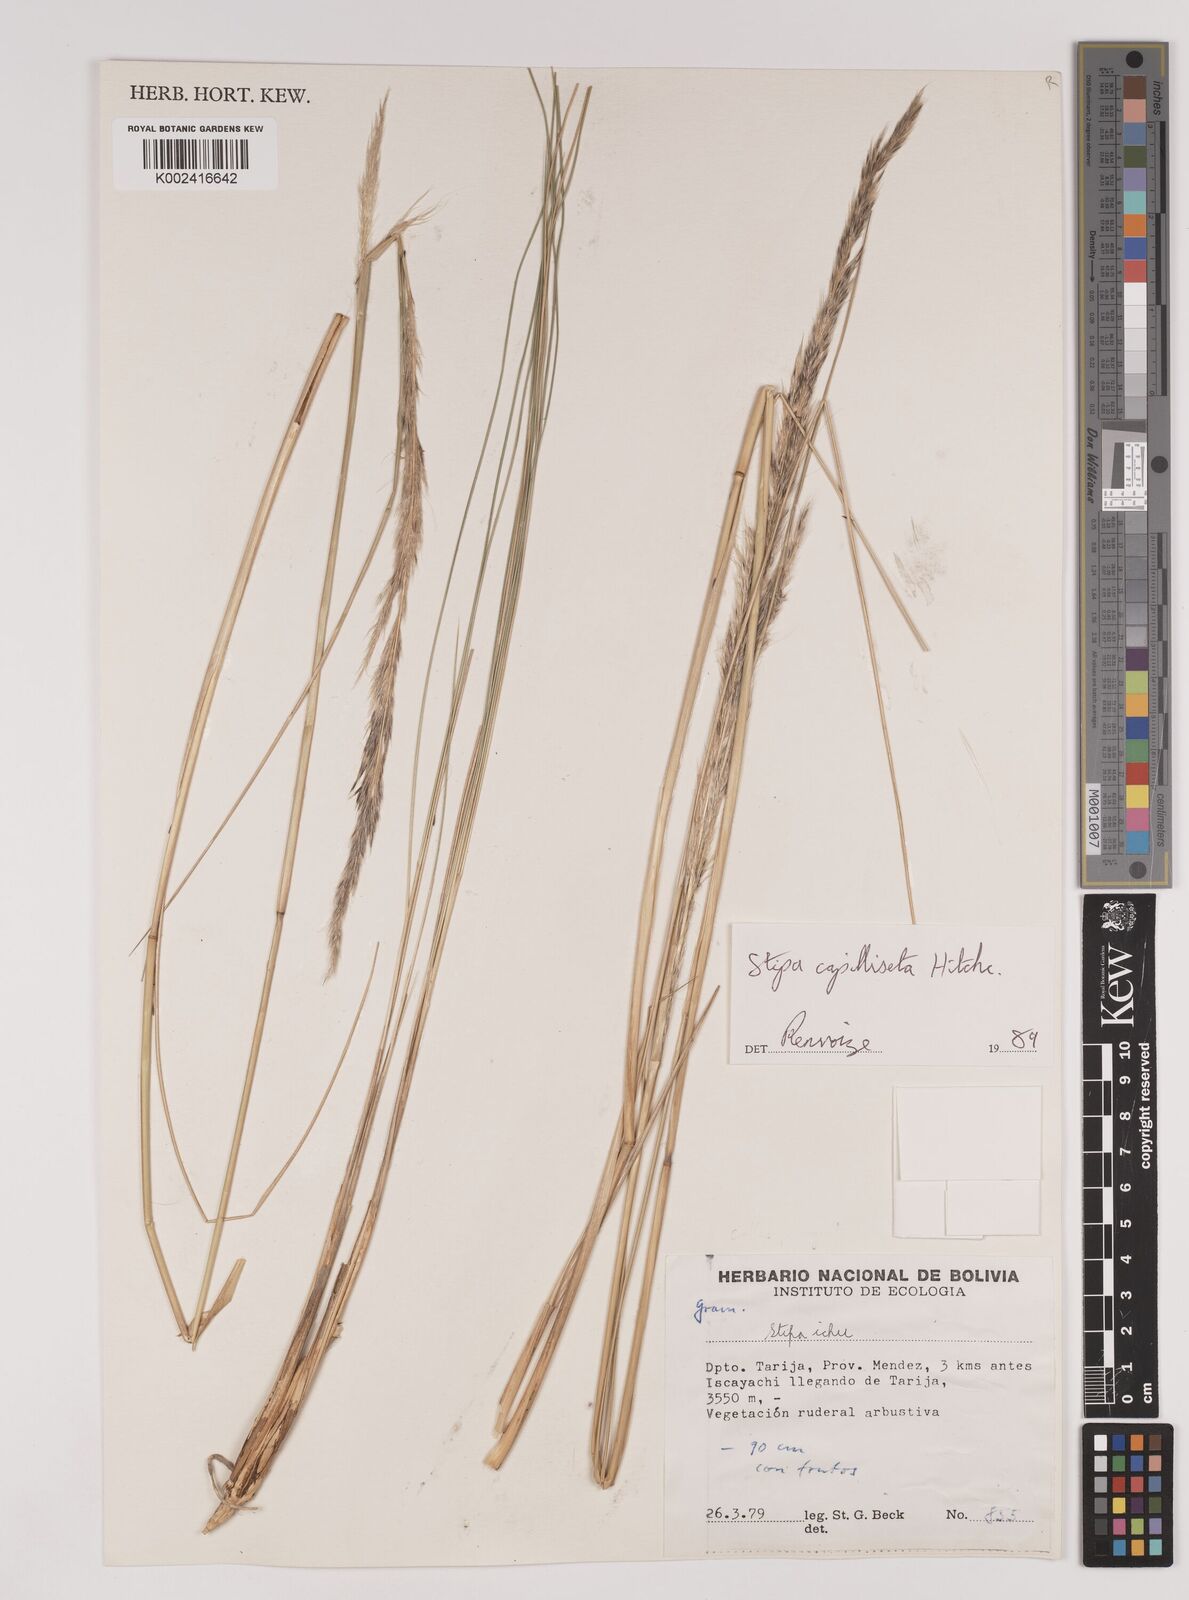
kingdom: Plantae
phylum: Tracheophyta
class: Liliopsida
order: Poales
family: Poaceae
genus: Jarava
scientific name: Jarava leptostachya
